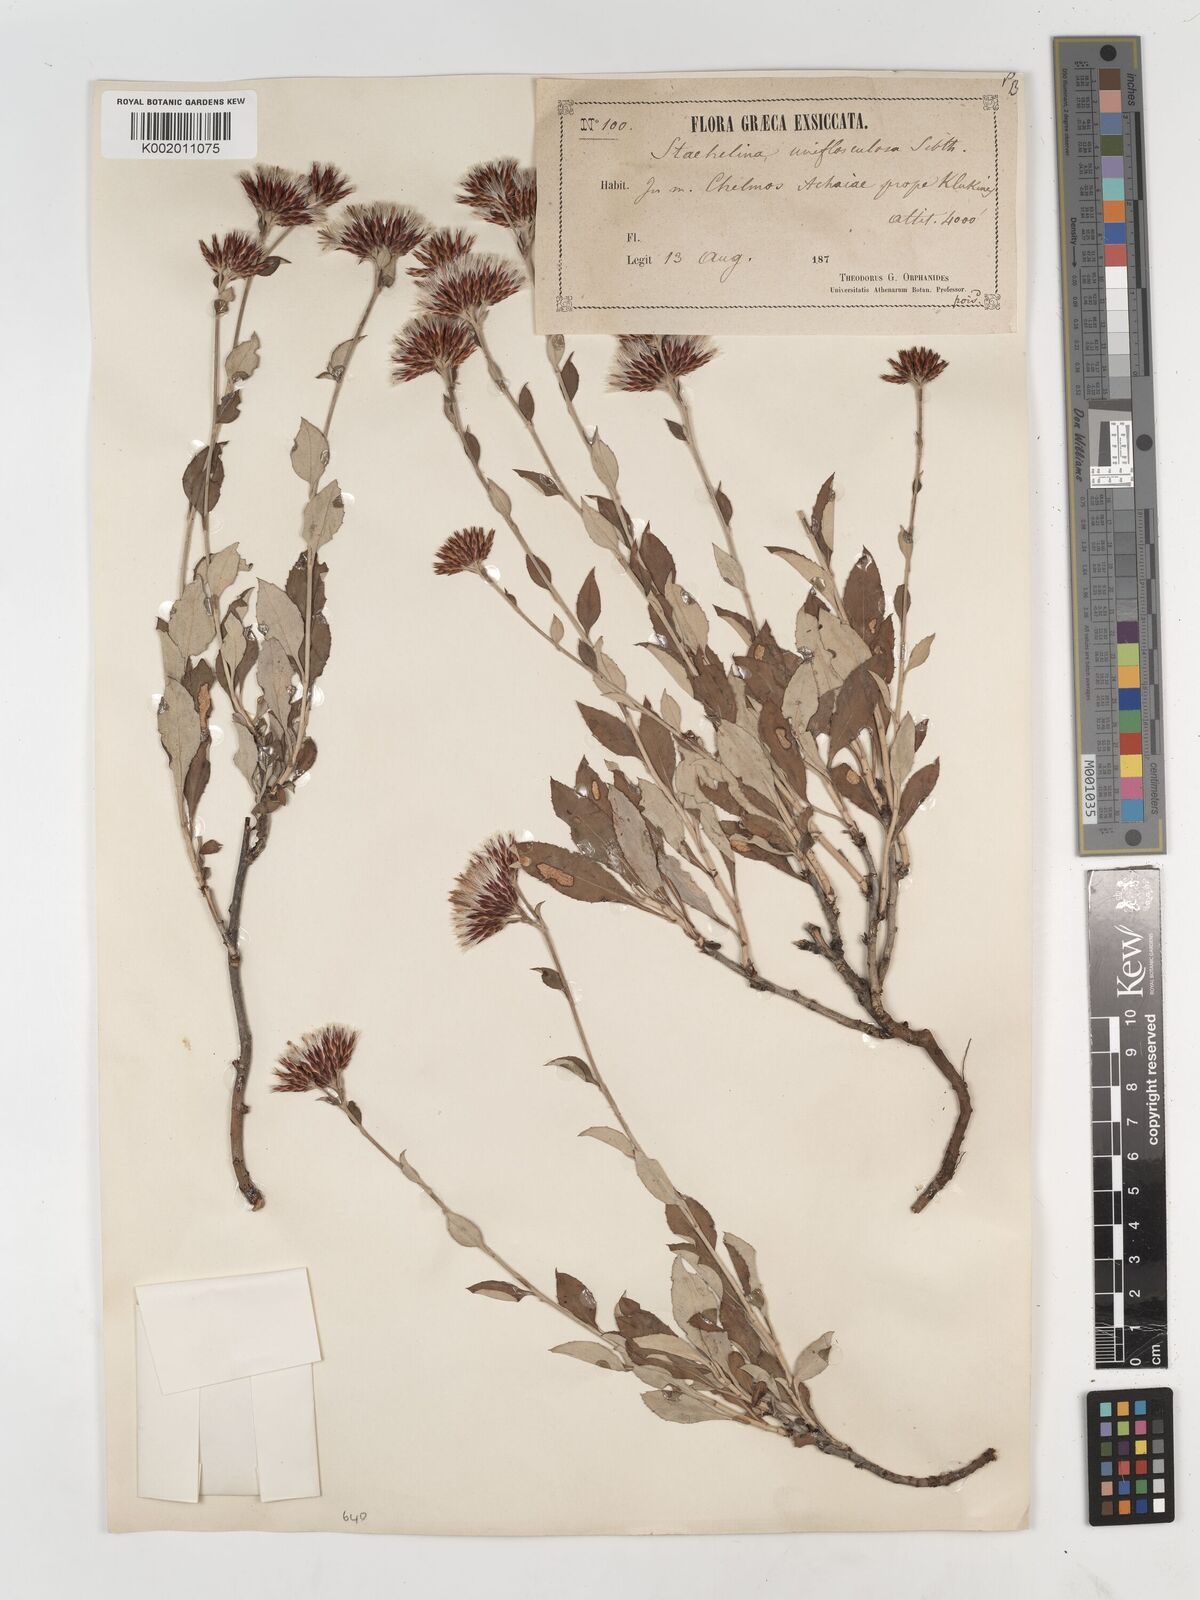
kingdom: Plantae
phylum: Tracheophyta
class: Magnoliopsida
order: Asterales
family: Asteraceae
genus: Staehelina
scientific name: Staehelina uniflosculosa
